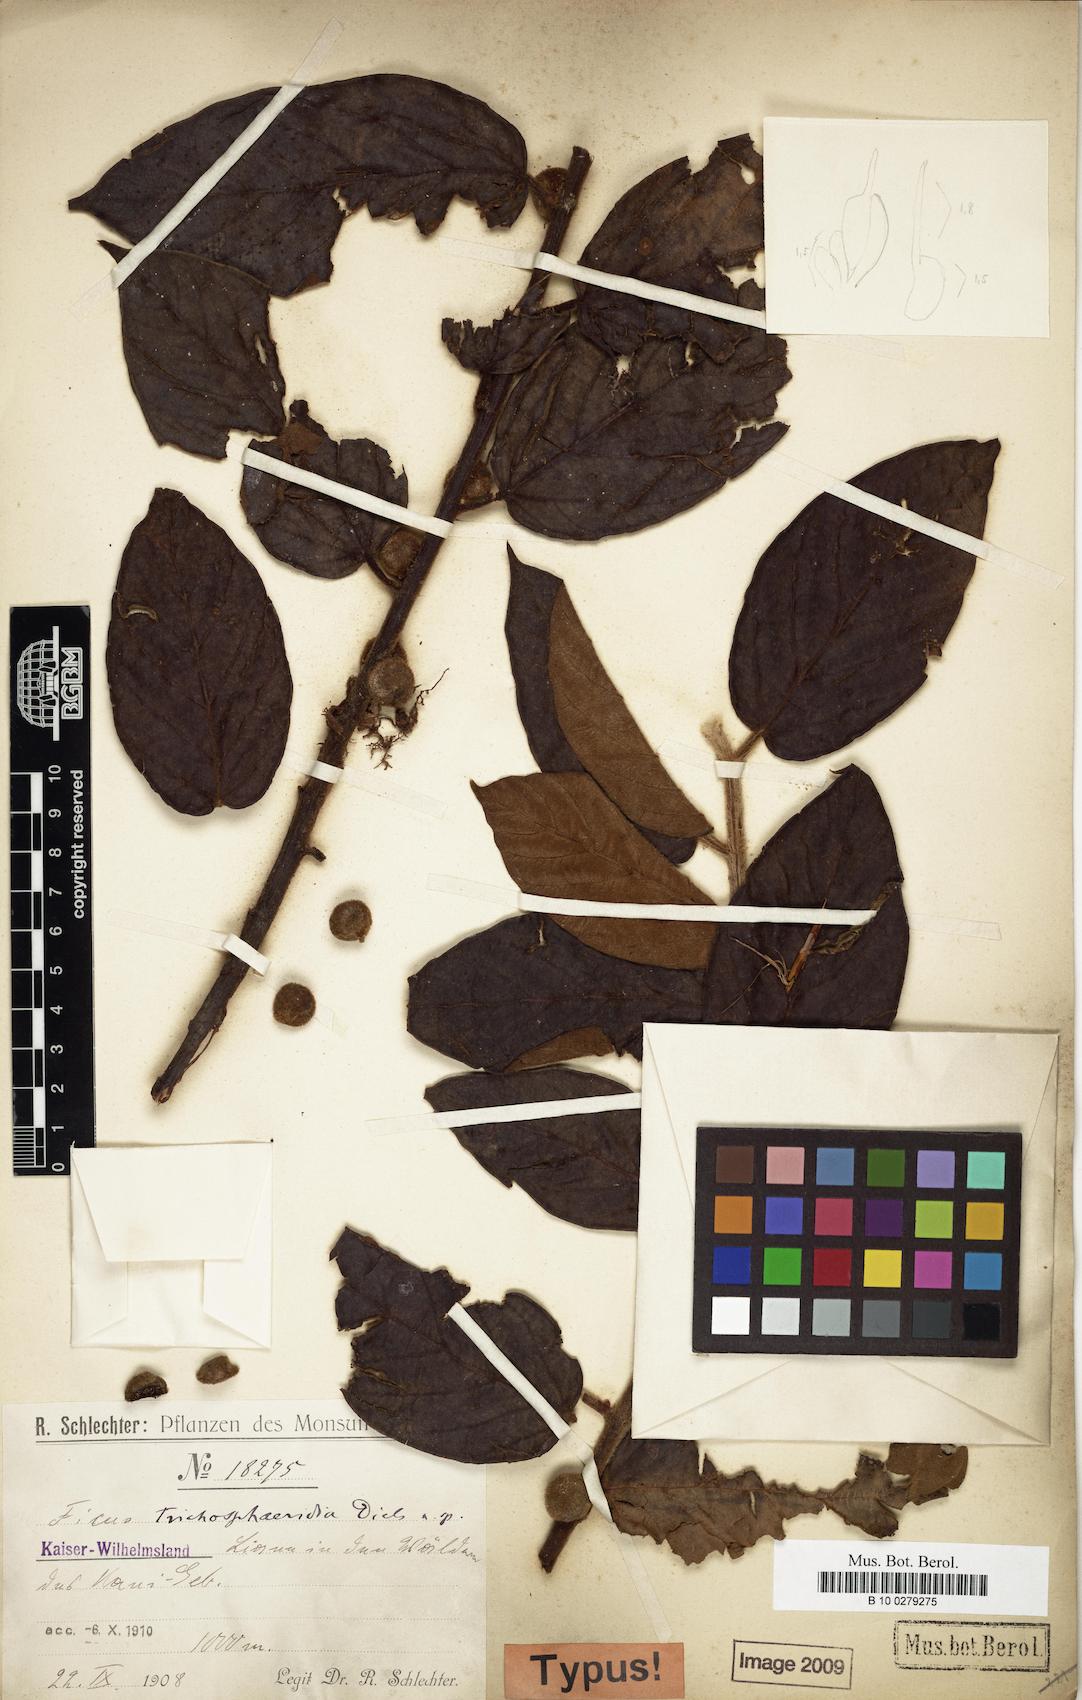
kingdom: Plantae
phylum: Tracheophyta
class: Magnoliopsida
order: Rosales
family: Moraceae
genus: Ficus
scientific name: Ficus odoardi
